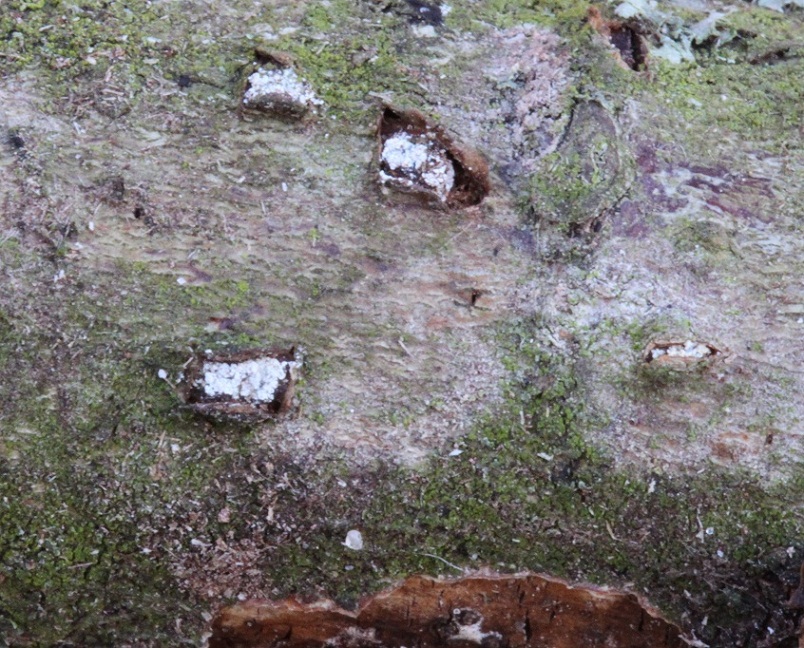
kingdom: Fungi
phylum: Basidiomycota
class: Pucciniomycetes
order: Platygloeales
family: Platygloeaceae
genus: Platygloea
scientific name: Platygloea disciformis
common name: linde-slimklat
